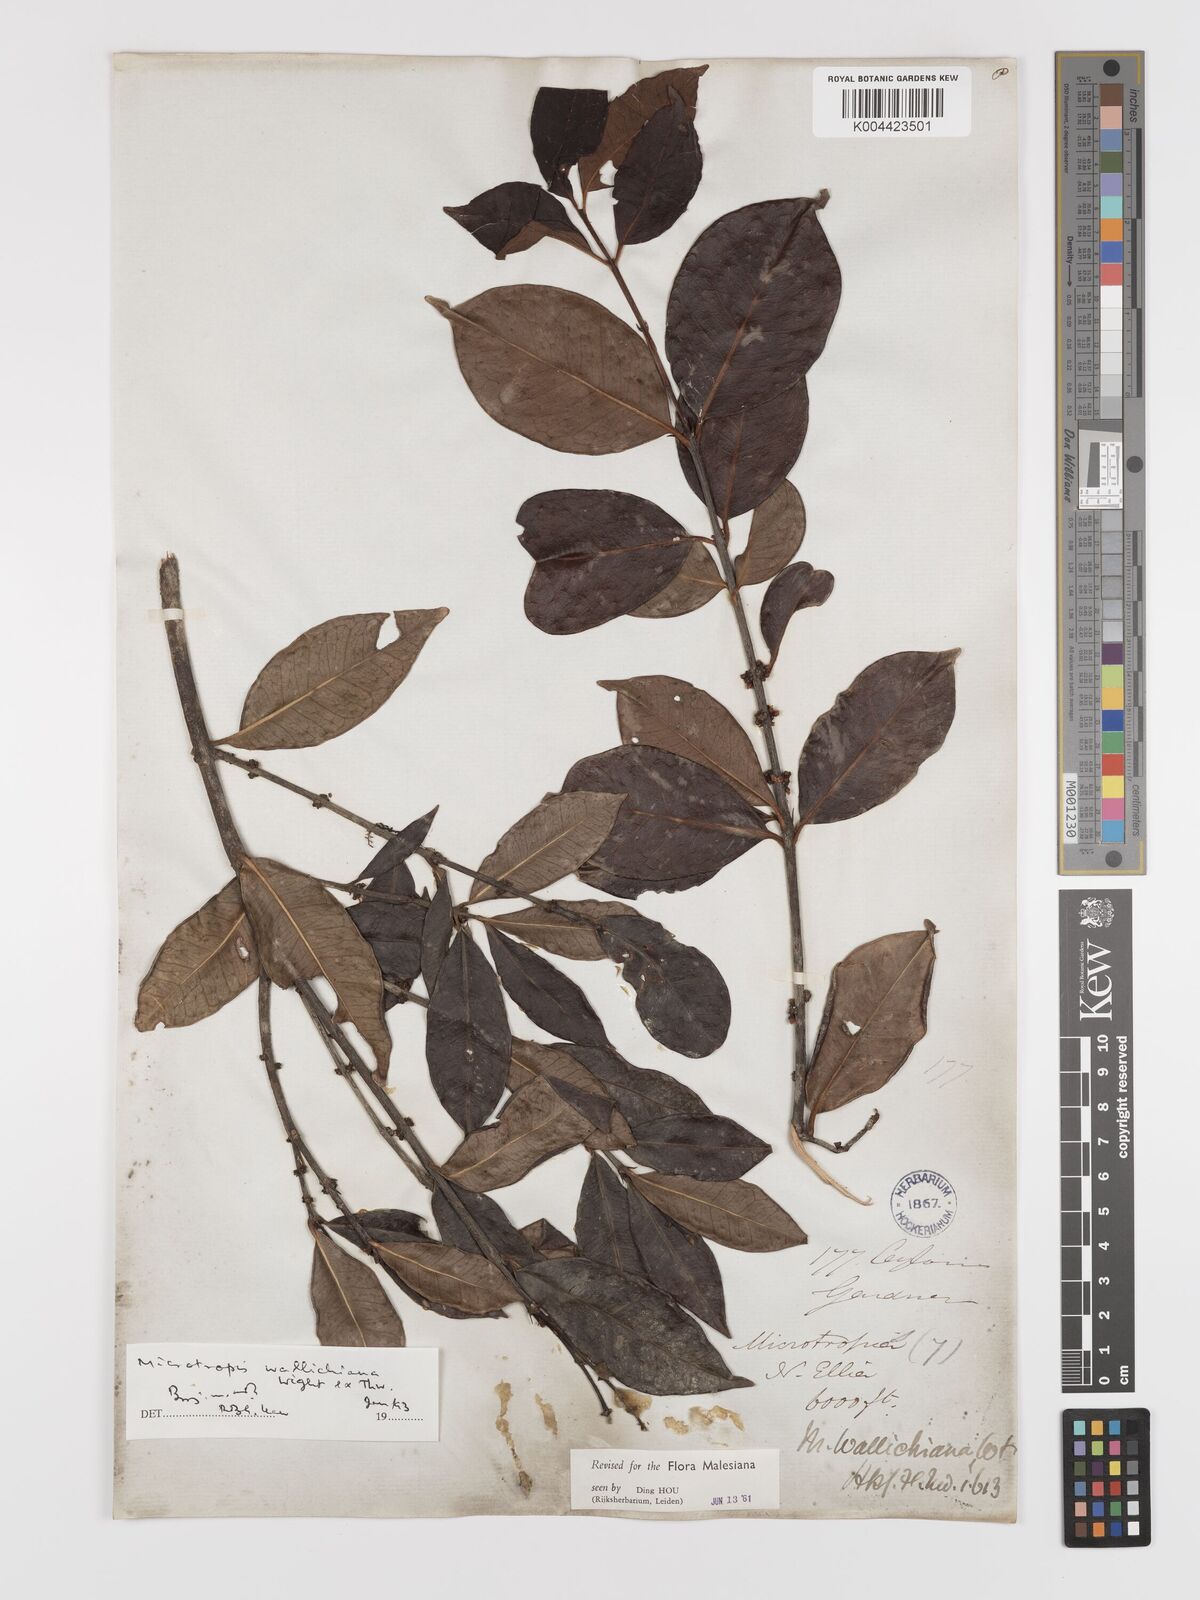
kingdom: Plantae
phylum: Tracheophyta
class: Magnoliopsida
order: Celastrales
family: Celastraceae
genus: Microtropis
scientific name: Microtropis wallichiana
